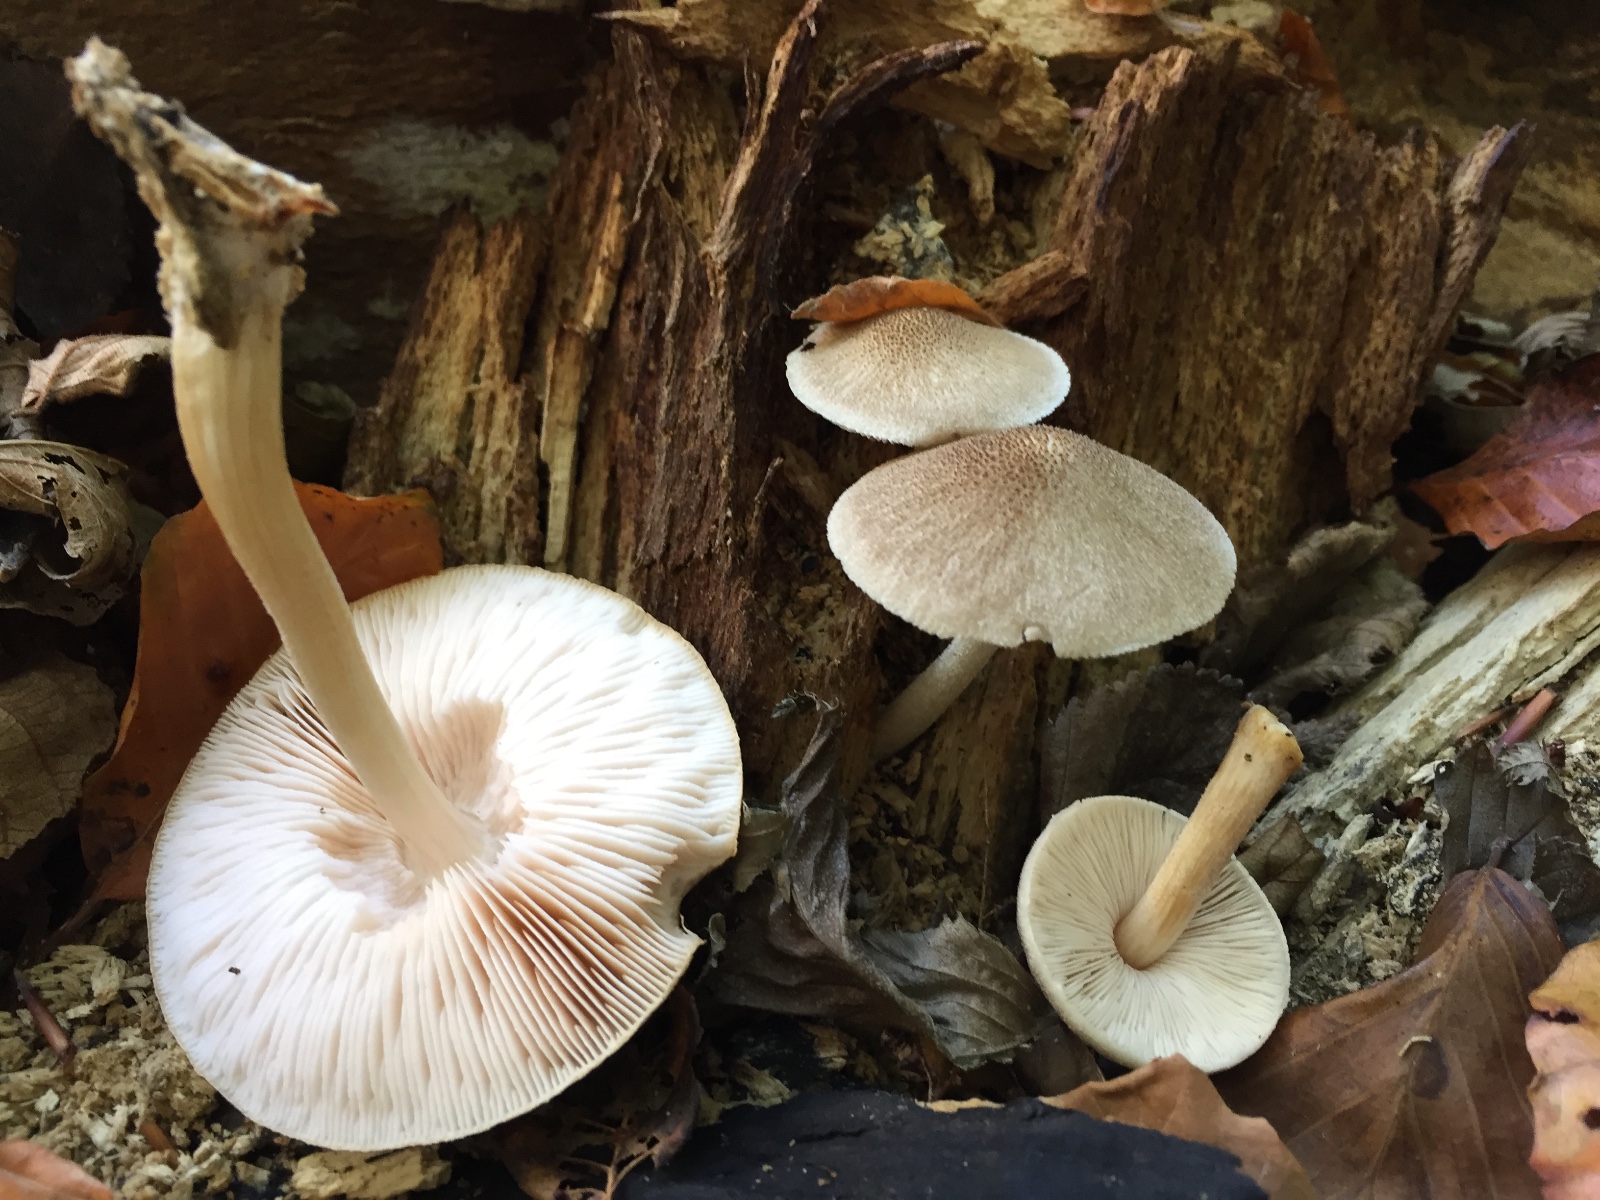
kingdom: Fungi
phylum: Basidiomycota
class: Agaricomycetes
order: Agaricales
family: Pluteaceae
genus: Pluteus
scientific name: Pluteus
